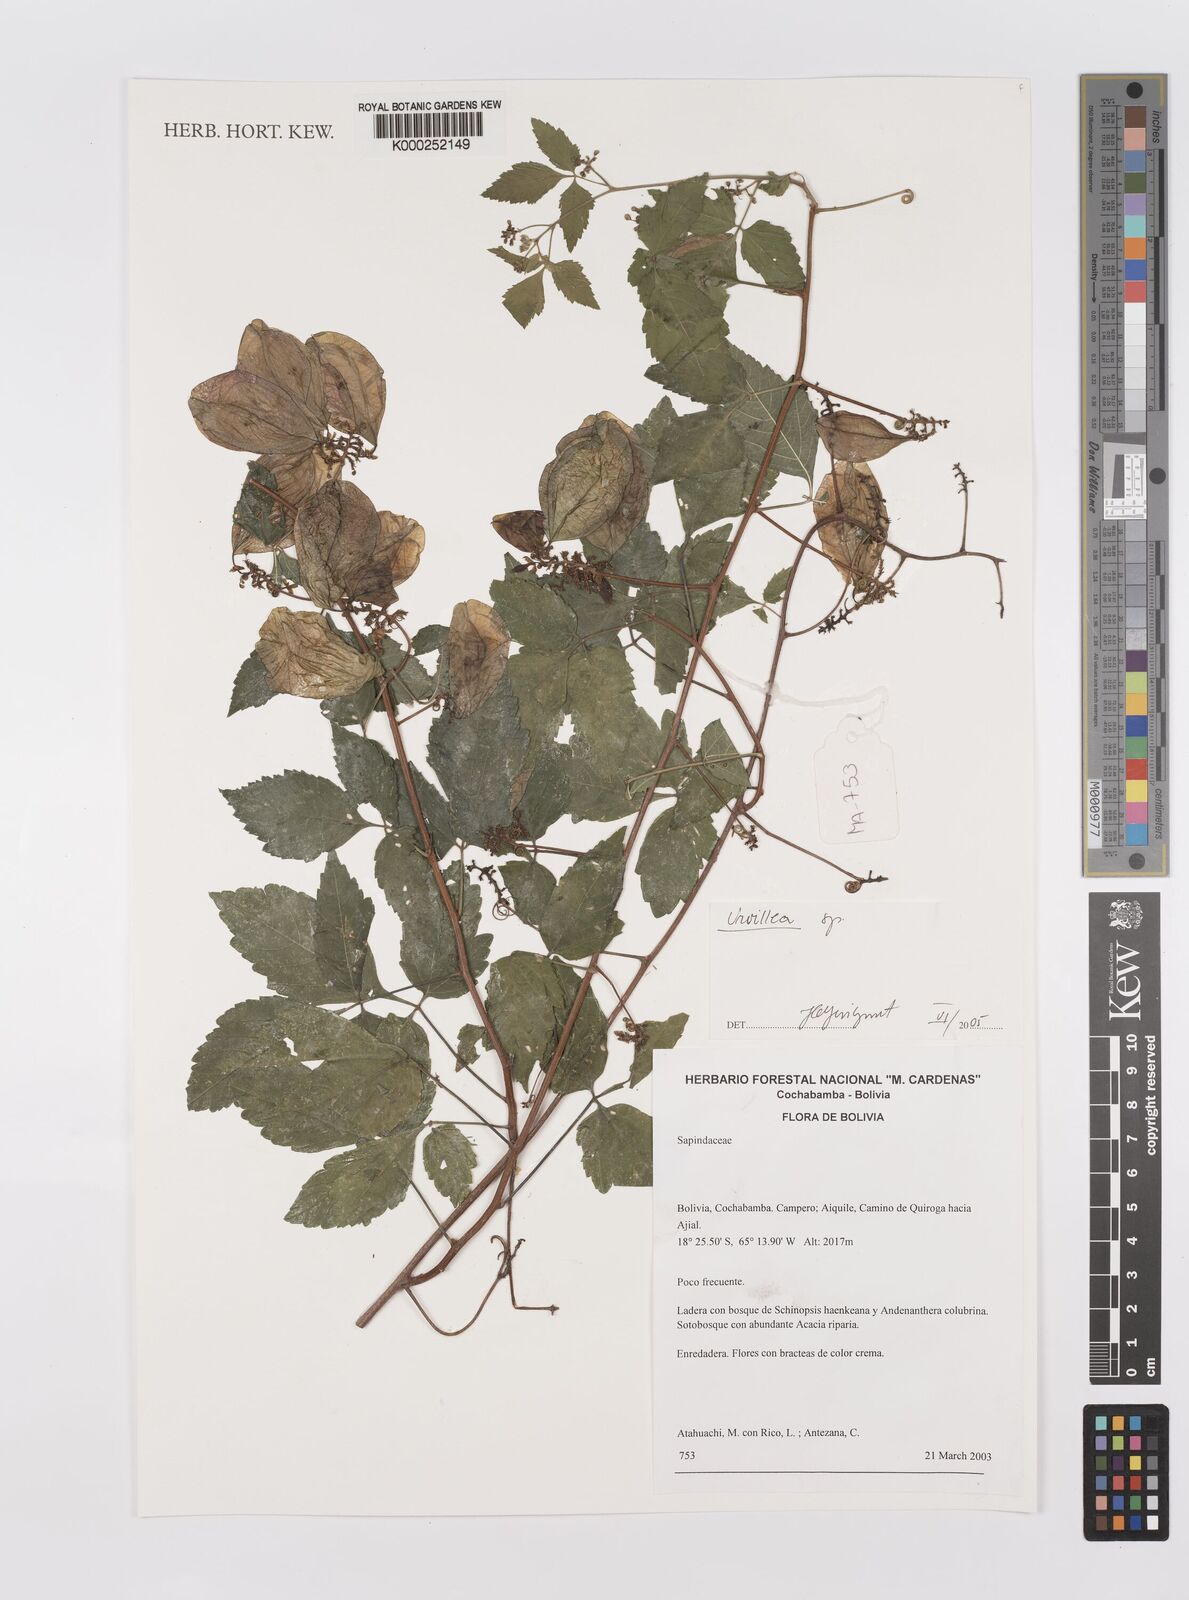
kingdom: Plantae
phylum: Tracheophyta
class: Magnoliopsida
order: Sapindales
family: Sapindaceae
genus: Urvillea
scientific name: Urvillea
